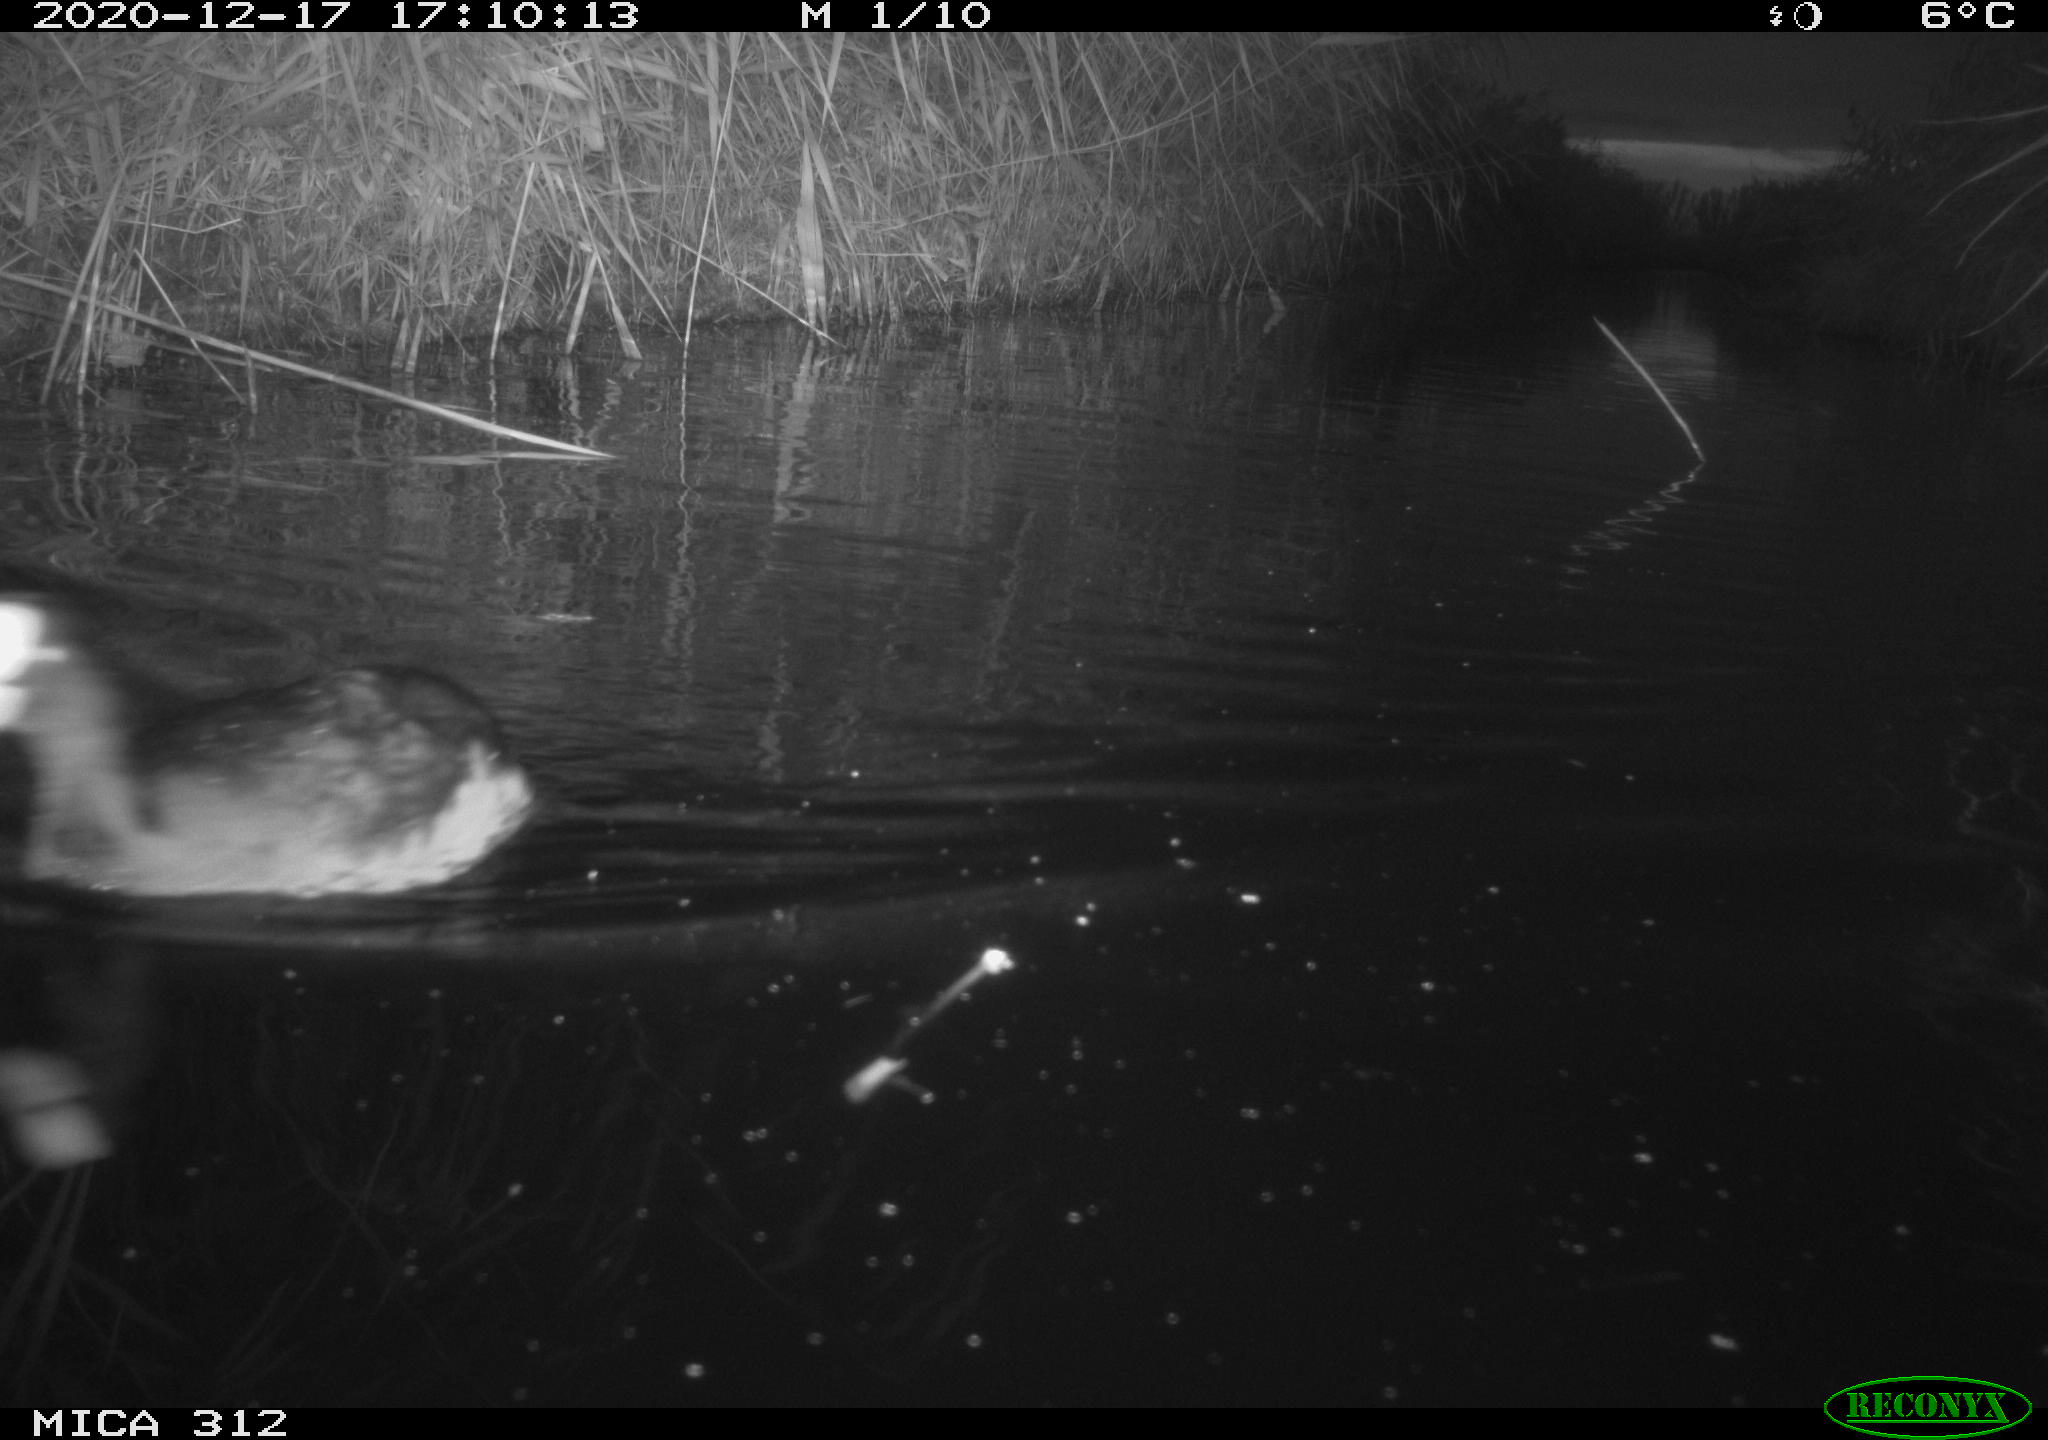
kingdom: Animalia
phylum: Chordata
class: Aves
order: Gruiformes
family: Rallidae
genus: Fulica
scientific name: Fulica atra
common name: Eurasian coot
